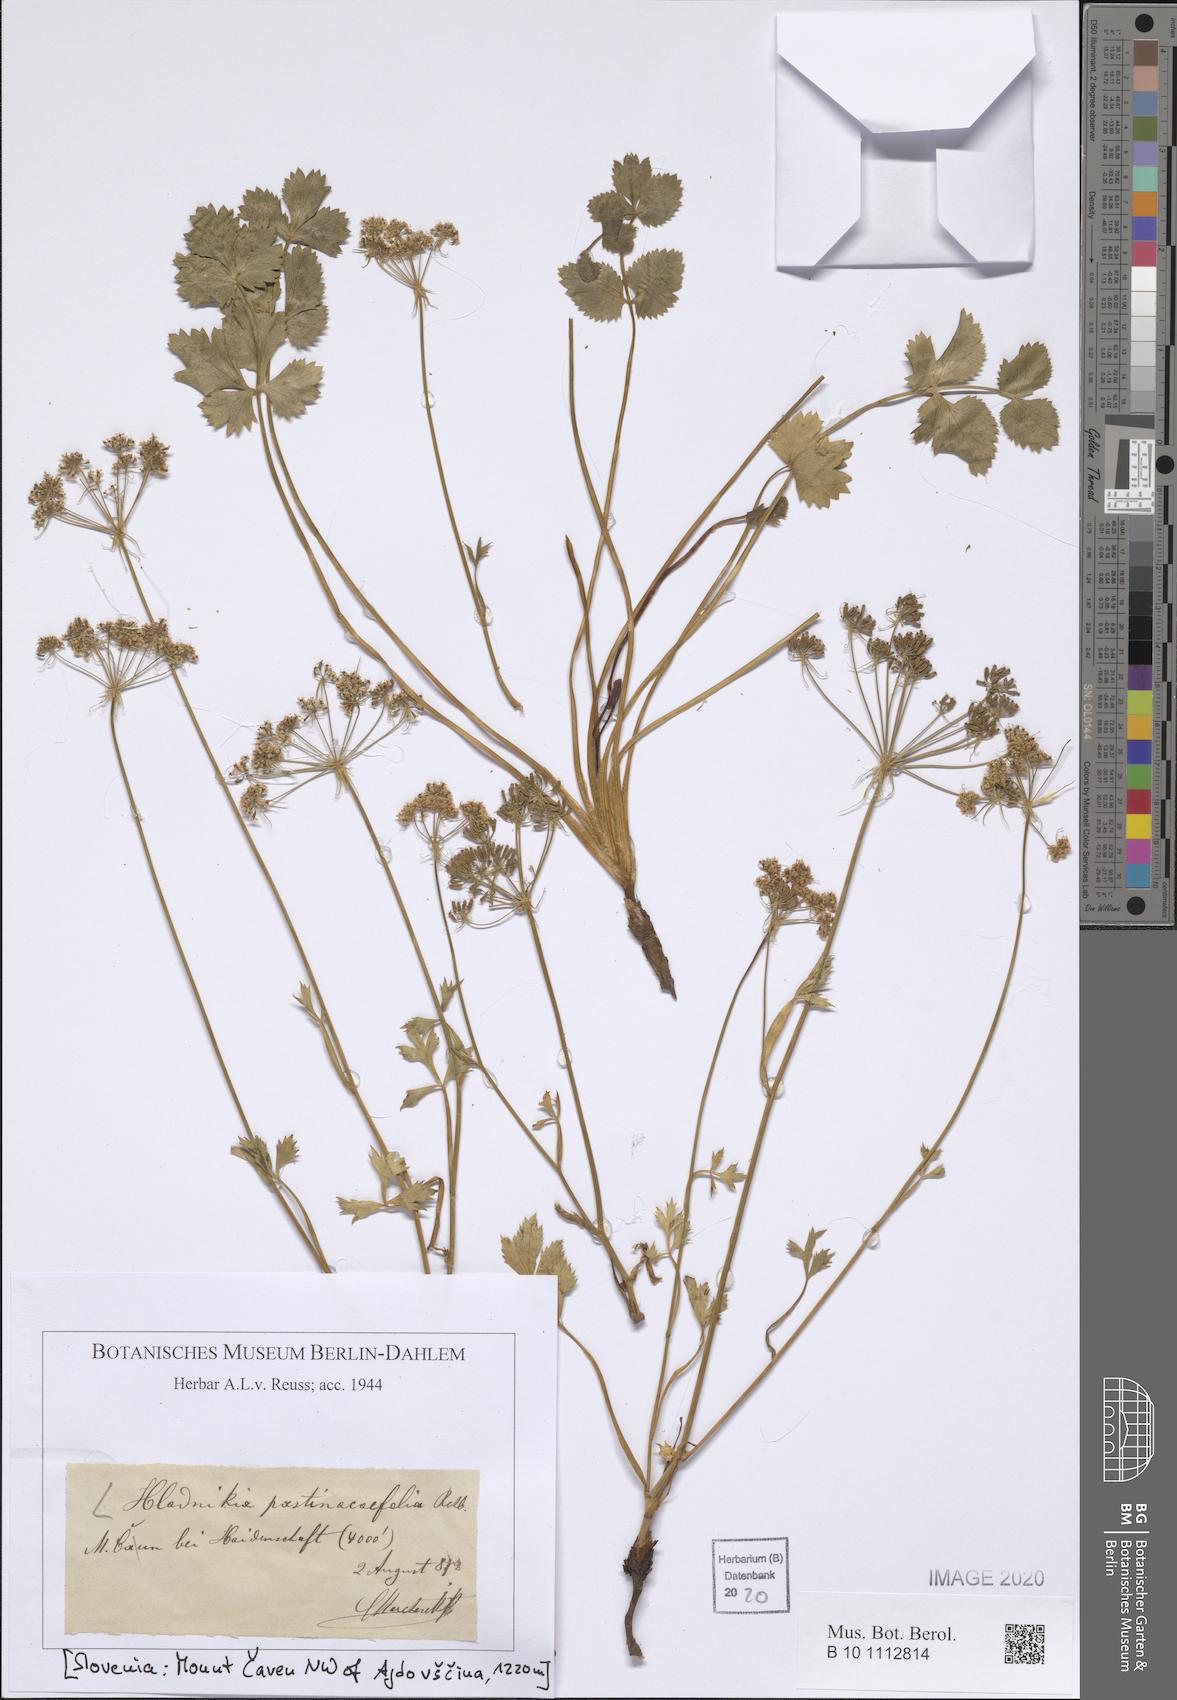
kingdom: Plantae
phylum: Tracheophyta
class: Magnoliopsida
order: Apiales
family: Apiaceae
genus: Hladnikia
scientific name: Hladnikia pastinacifolia
